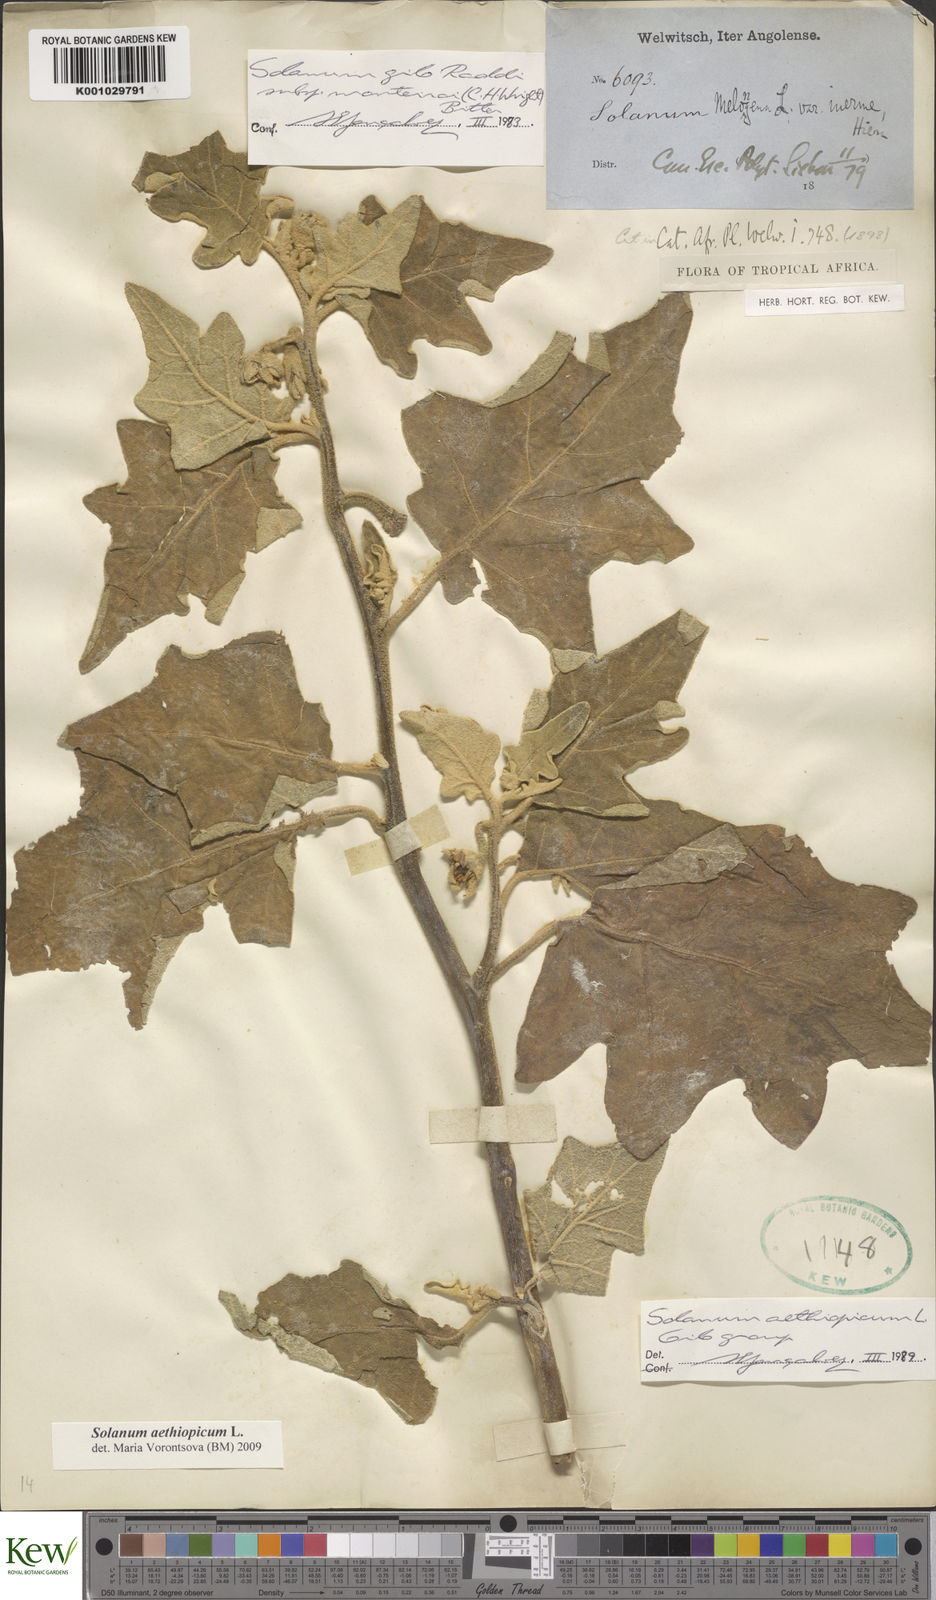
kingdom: Plantae
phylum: Tracheophyta
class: Magnoliopsida
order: Solanales
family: Solanaceae
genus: Solanum
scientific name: Solanum aethiopicum
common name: Gilo
